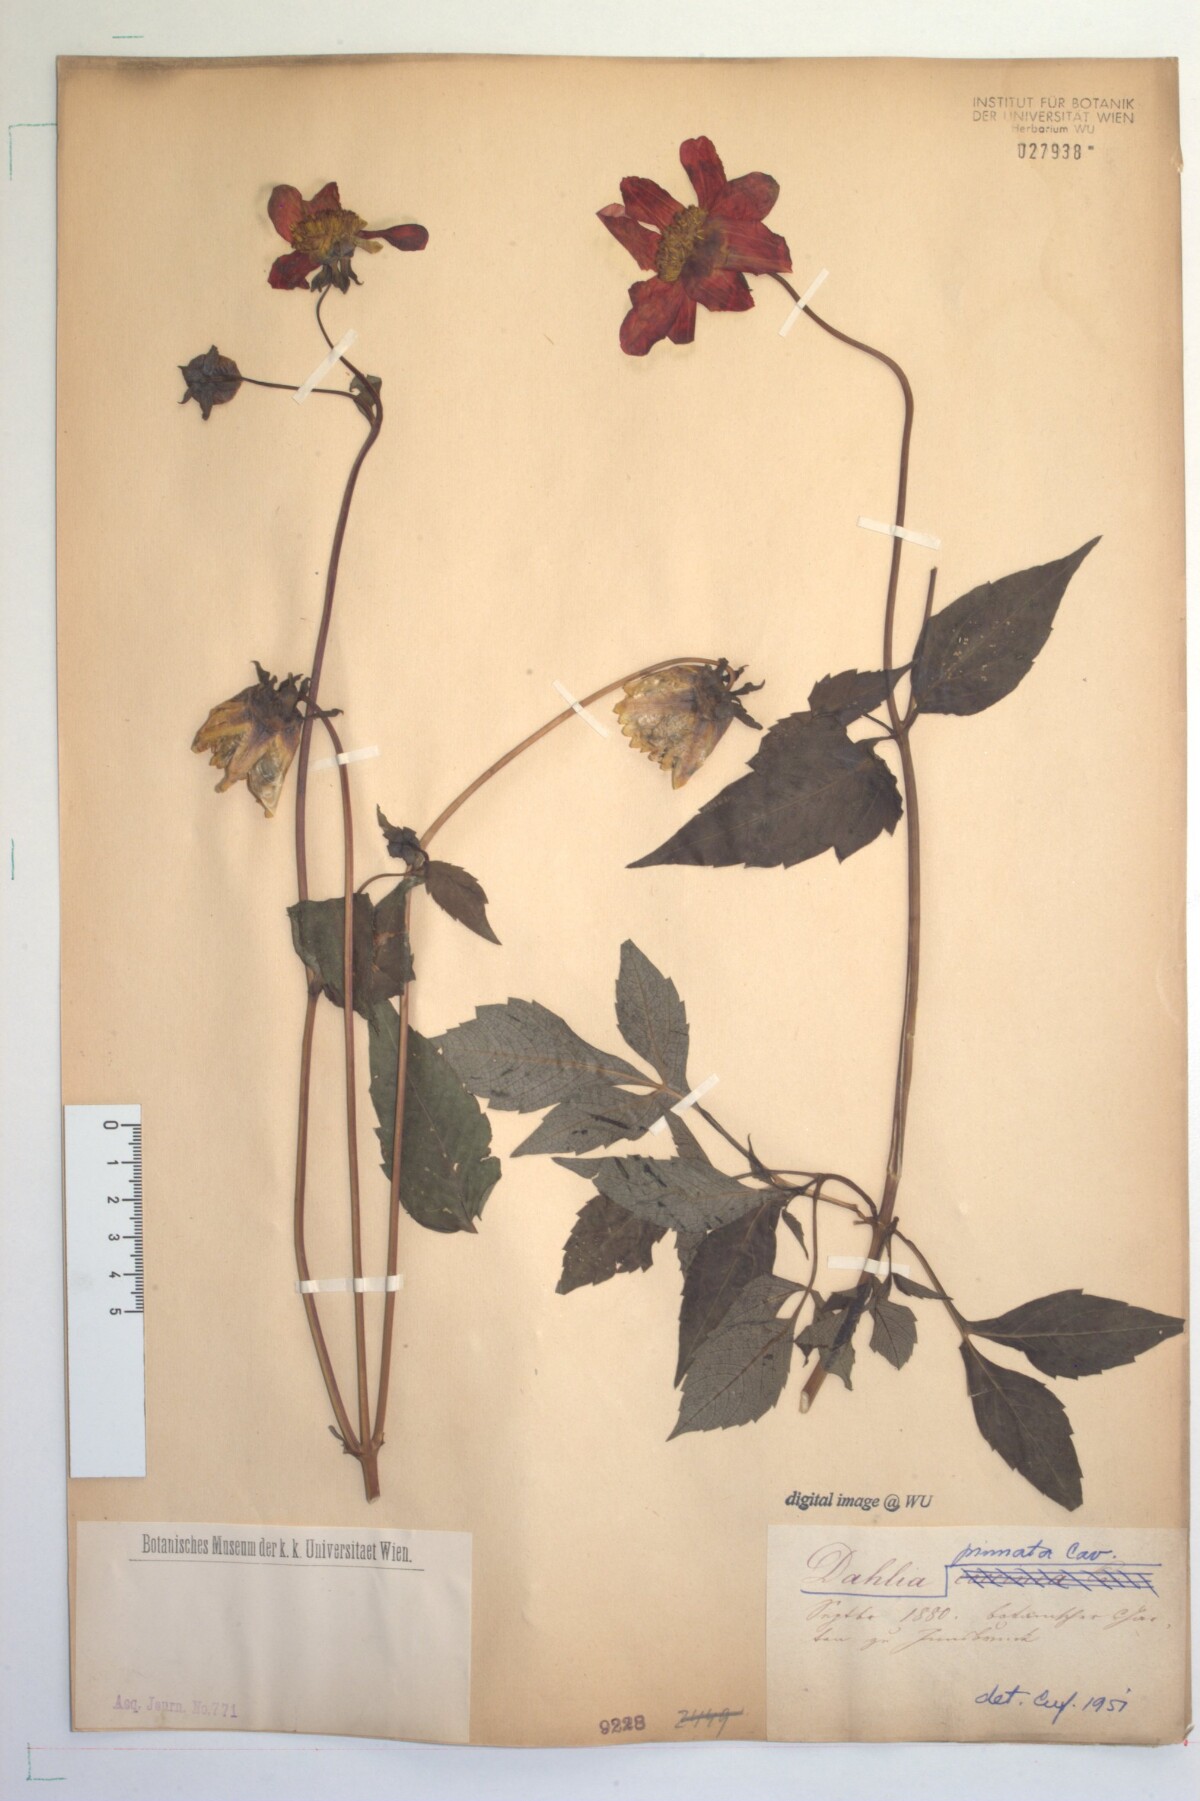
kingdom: Plantae
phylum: Tracheophyta
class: Magnoliopsida
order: Asterales
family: Asteraceae
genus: Dahlia
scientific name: Dahlia pinnata
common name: Dahlia
